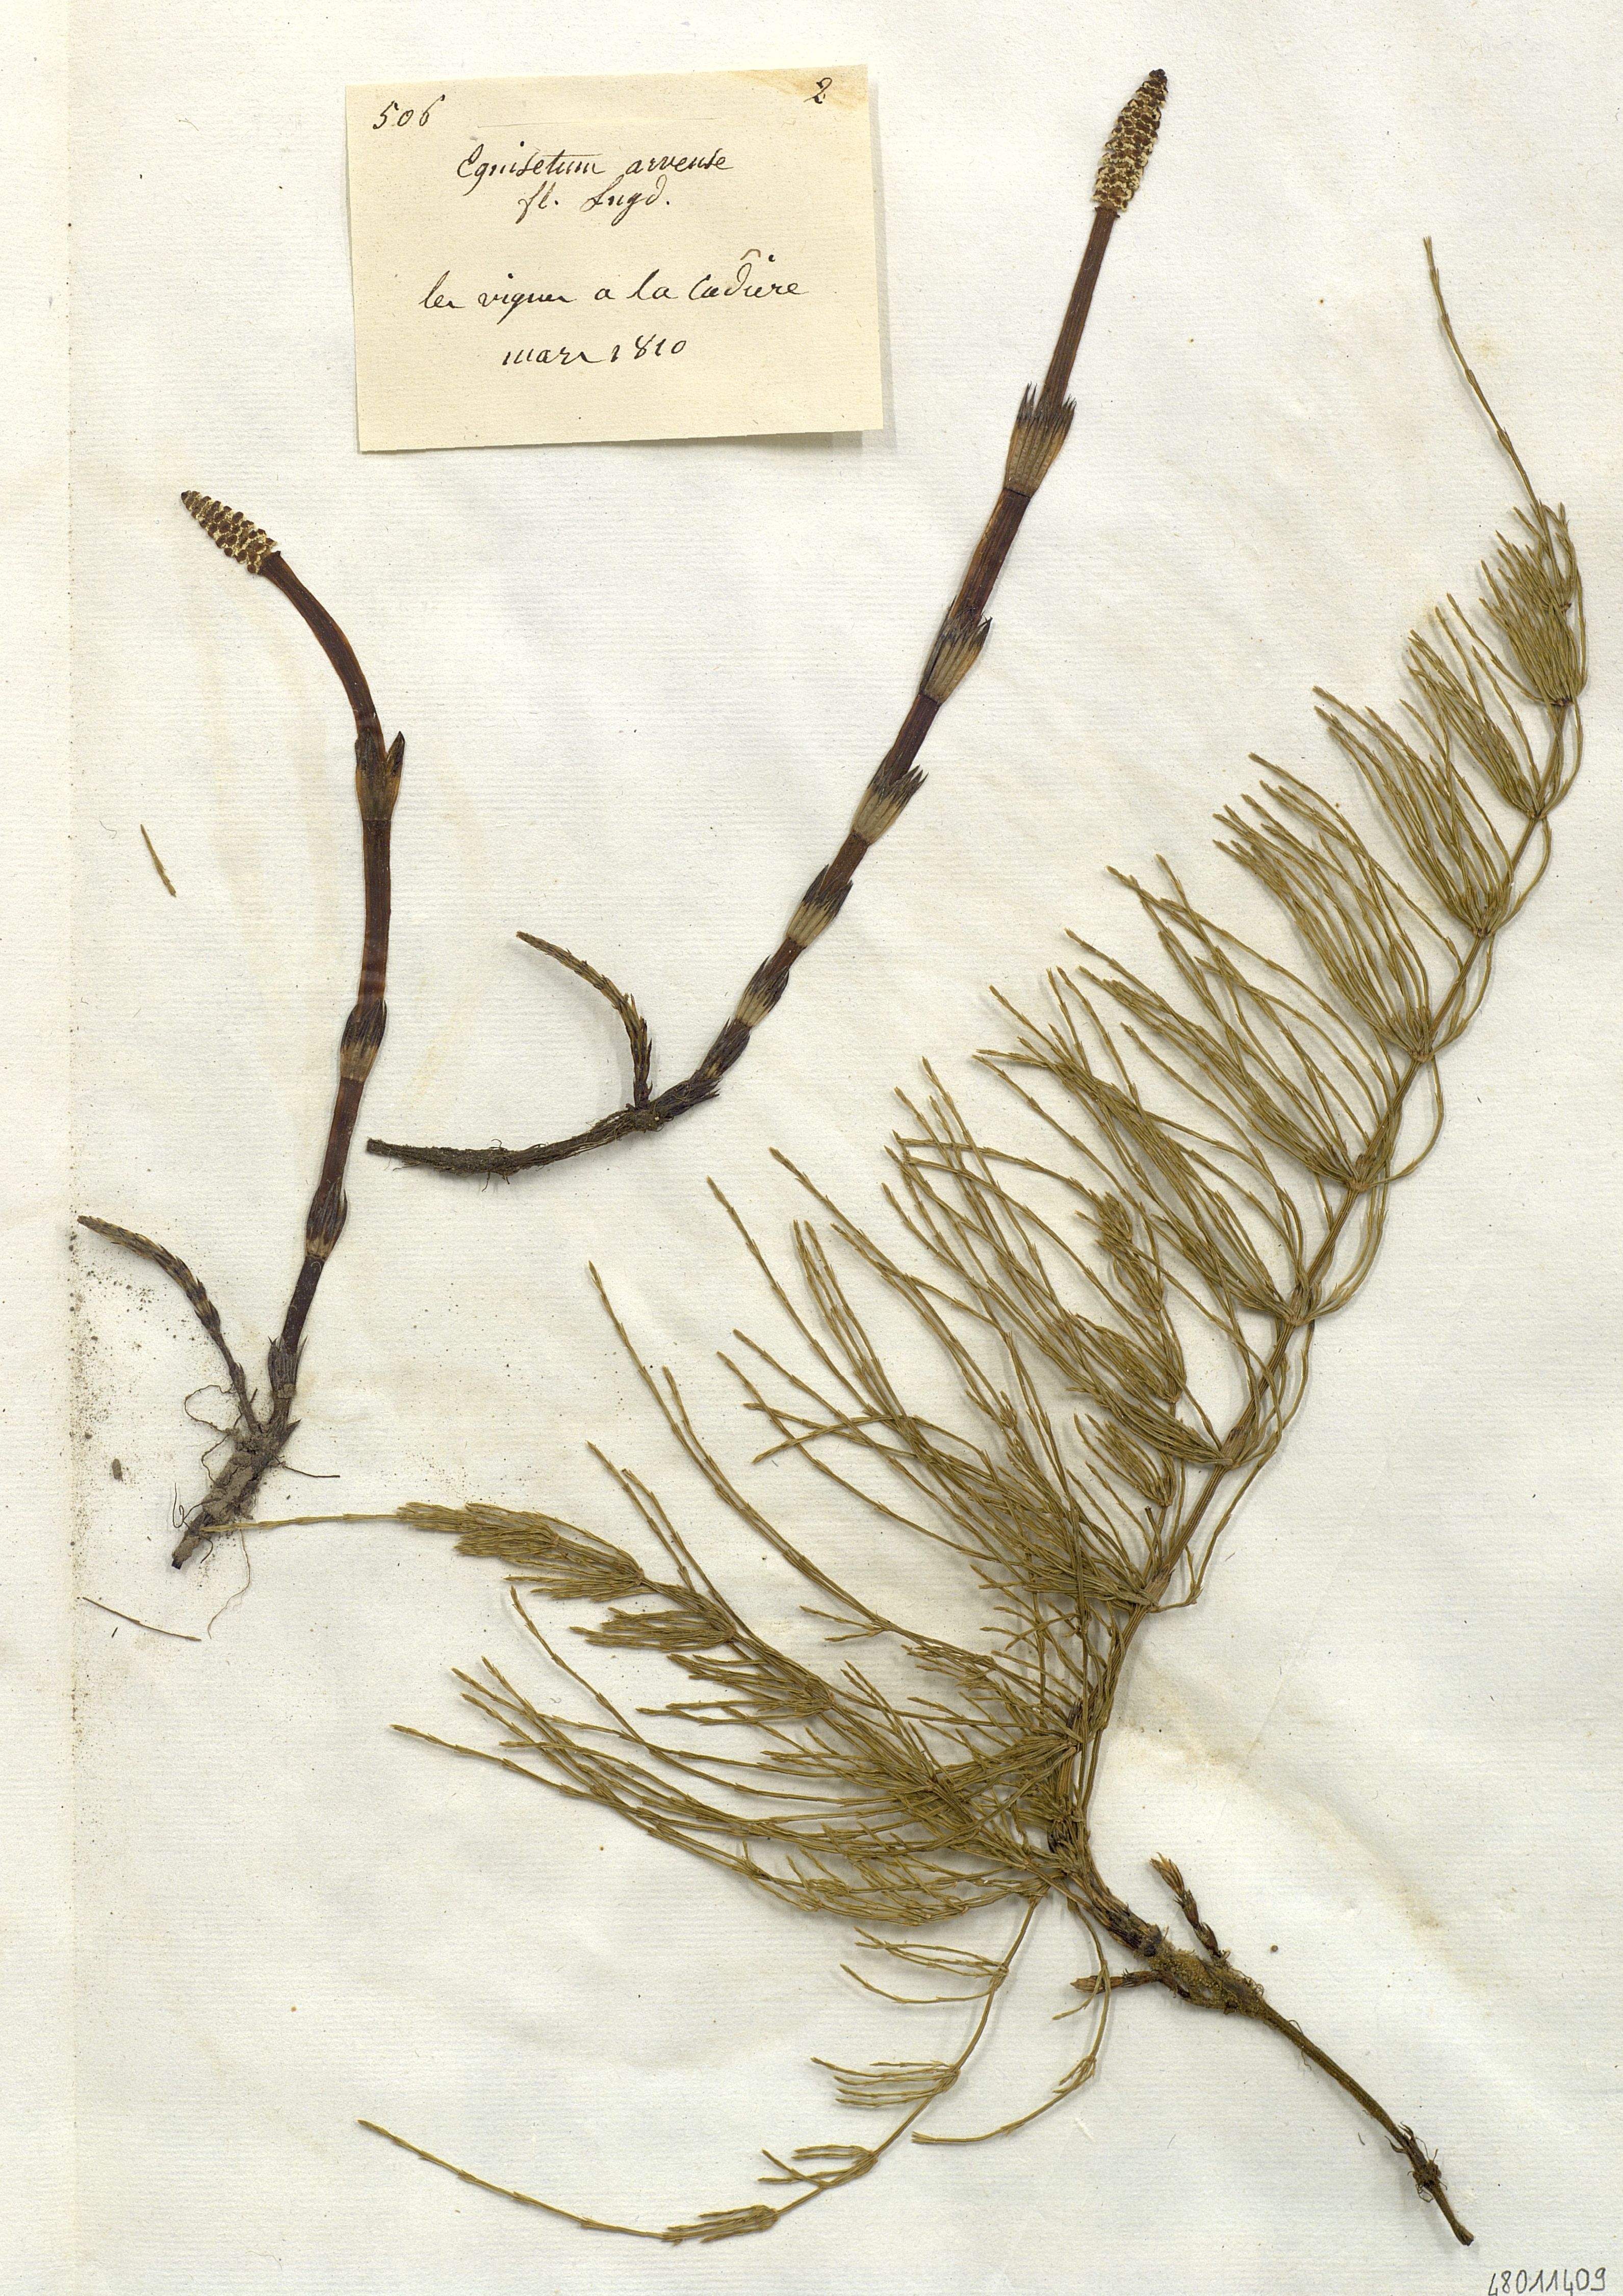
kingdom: Plantae
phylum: Tracheophyta
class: Polypodiopsida
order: Equisetales
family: Equisetaceae
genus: Equisetum
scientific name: Equisetum arvense
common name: Field horsetail
